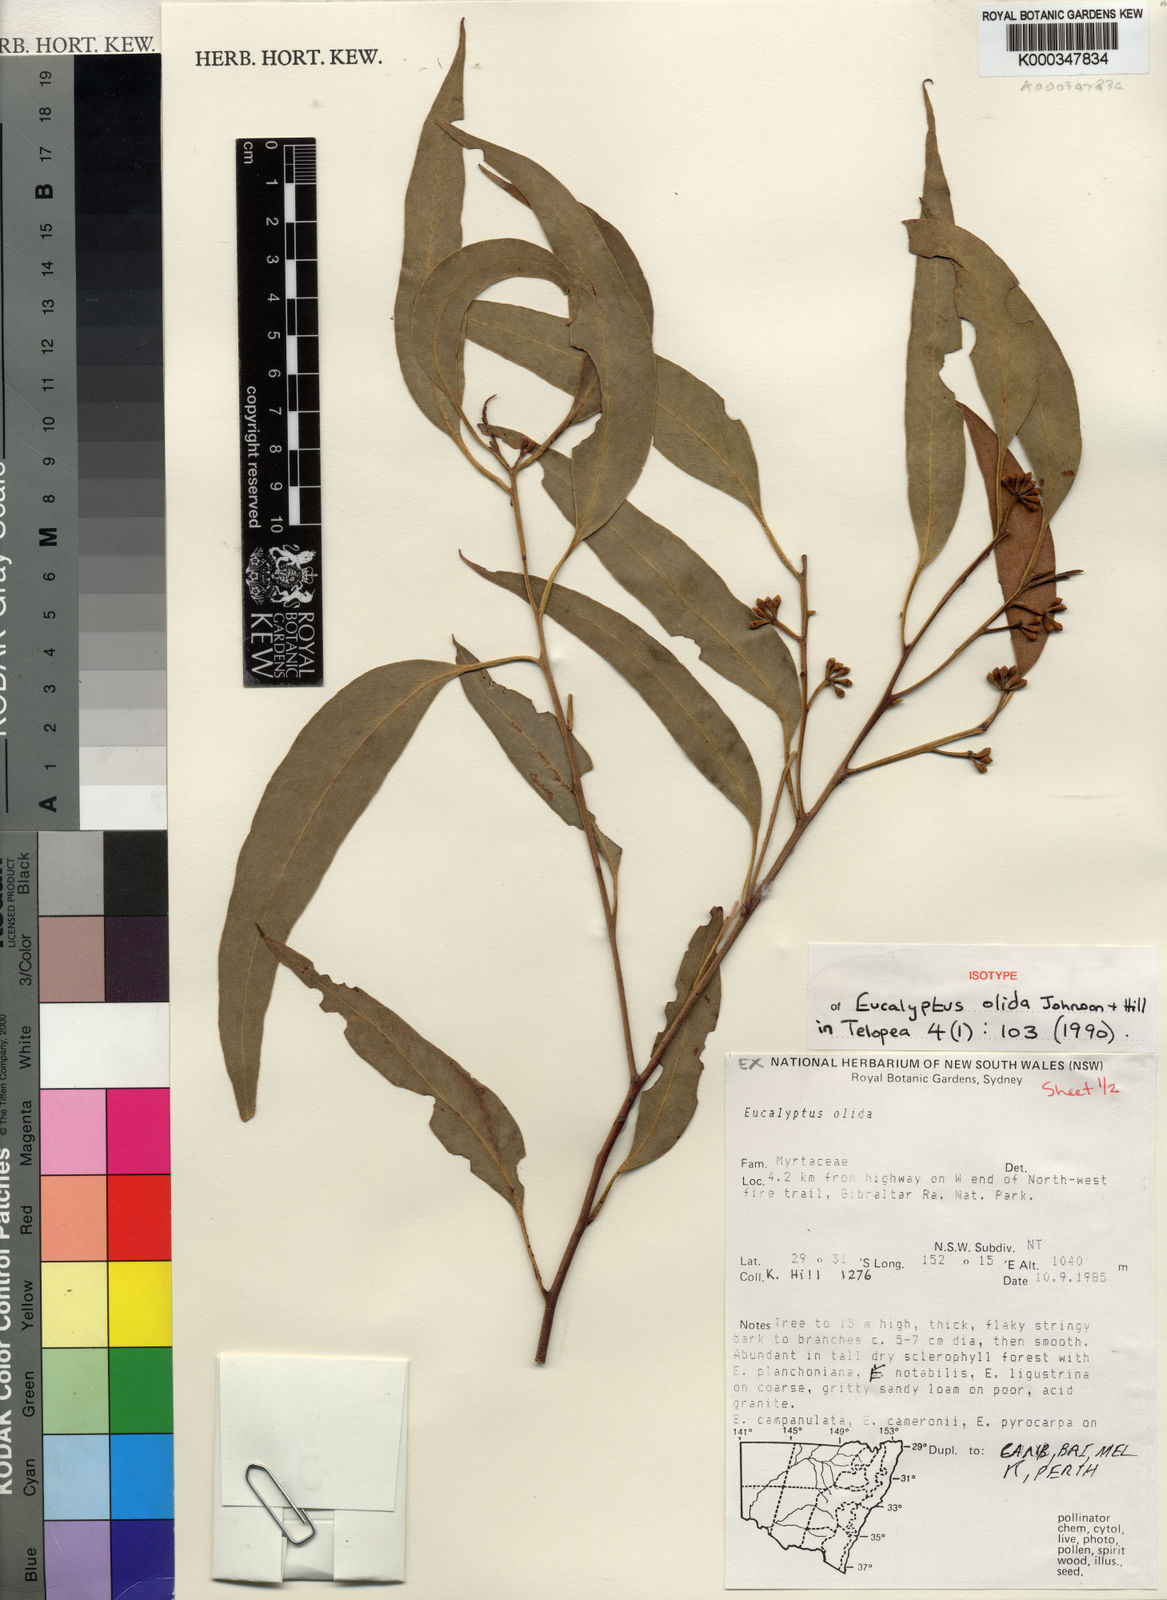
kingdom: Plantae
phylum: Tracheophyta
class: Magnoliopsida
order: Myrtales
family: Myrtaceae
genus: Eucalyptus
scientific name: Eucalyptus olida
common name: Strawberry gum
